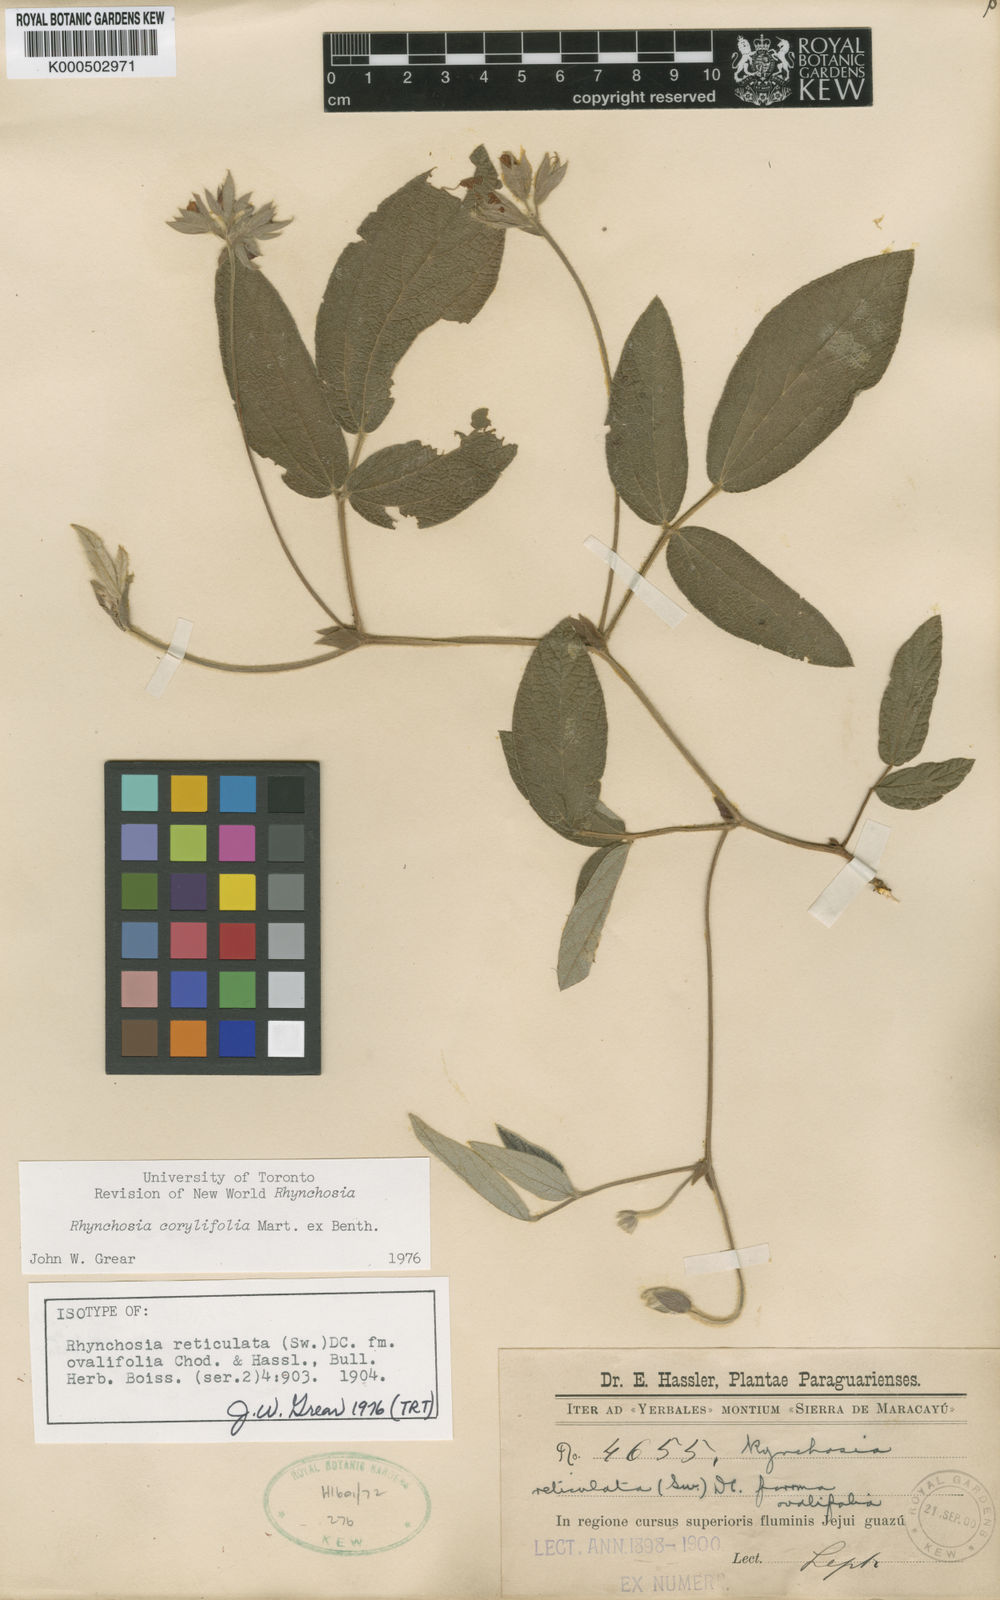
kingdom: Plantae
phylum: Tracheophyta
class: Magnoliopsida
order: Fabales
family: Fabaceae
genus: Rhynchosia
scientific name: Rhynchosia corylifolia
